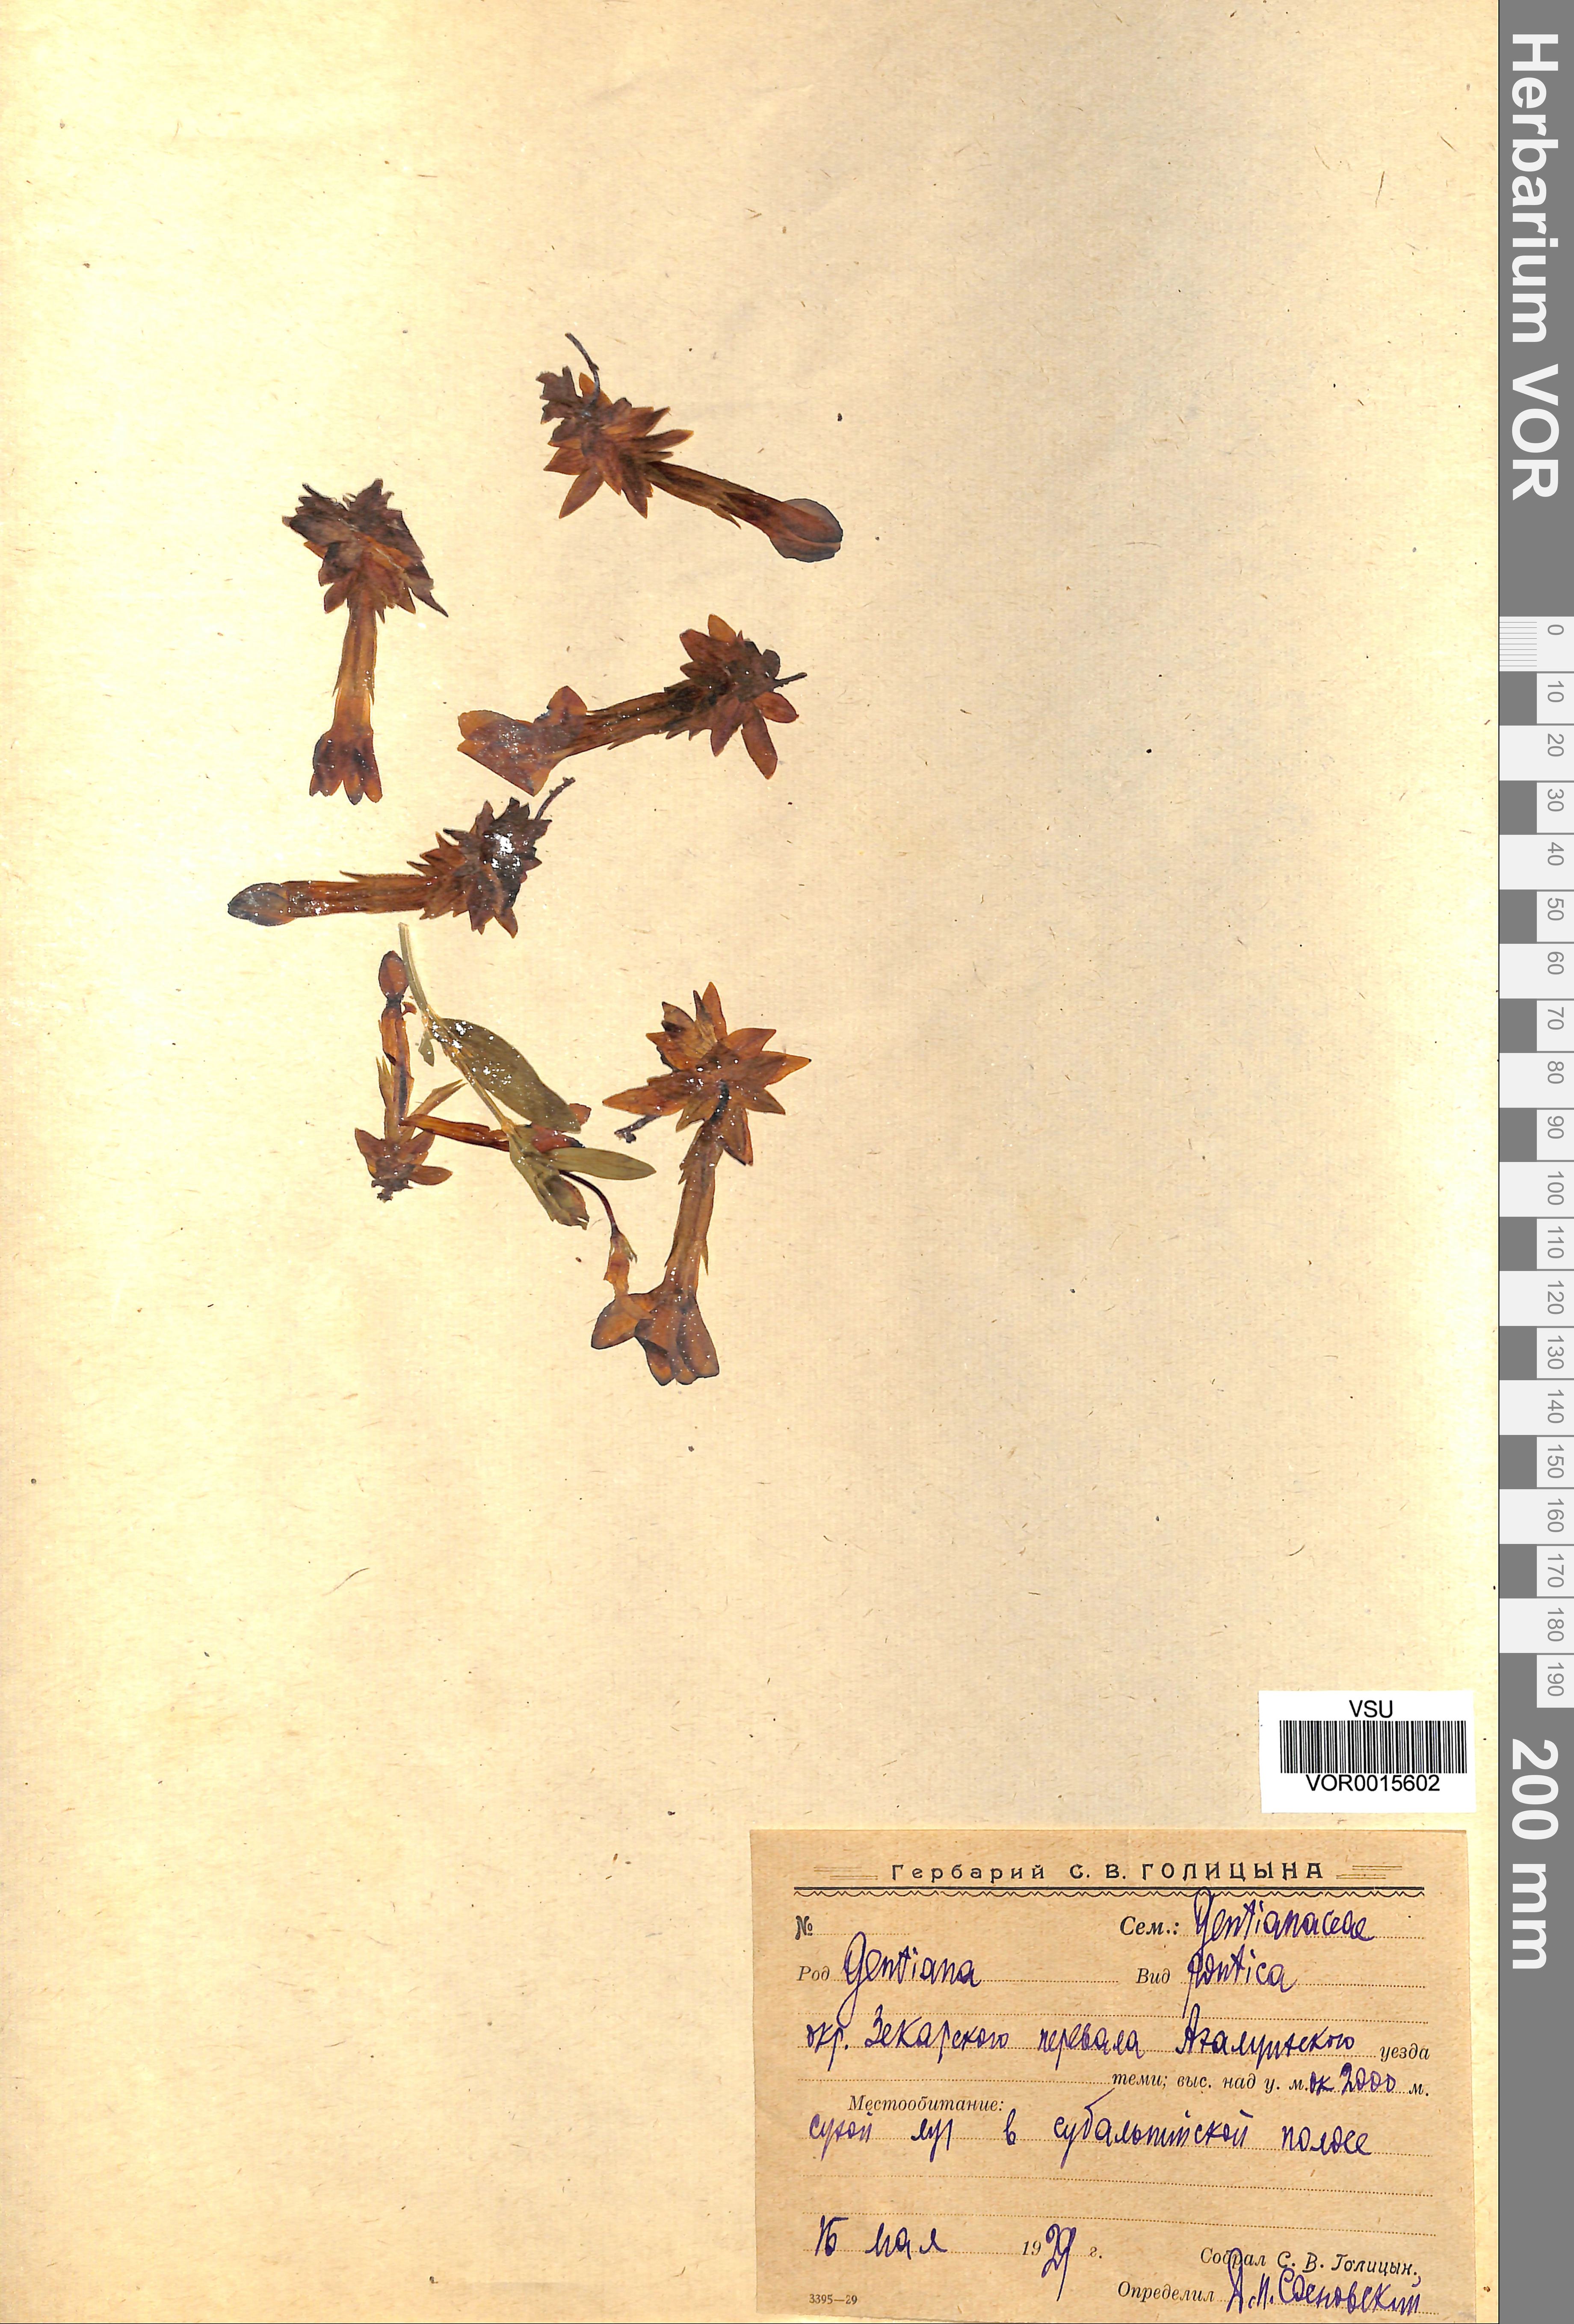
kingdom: Plantae
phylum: Tracheophyta
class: Magnoliopsida
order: Gentianales
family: Gentianaceae
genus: Gentiana
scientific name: Gentiana verna
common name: Spring gentian
